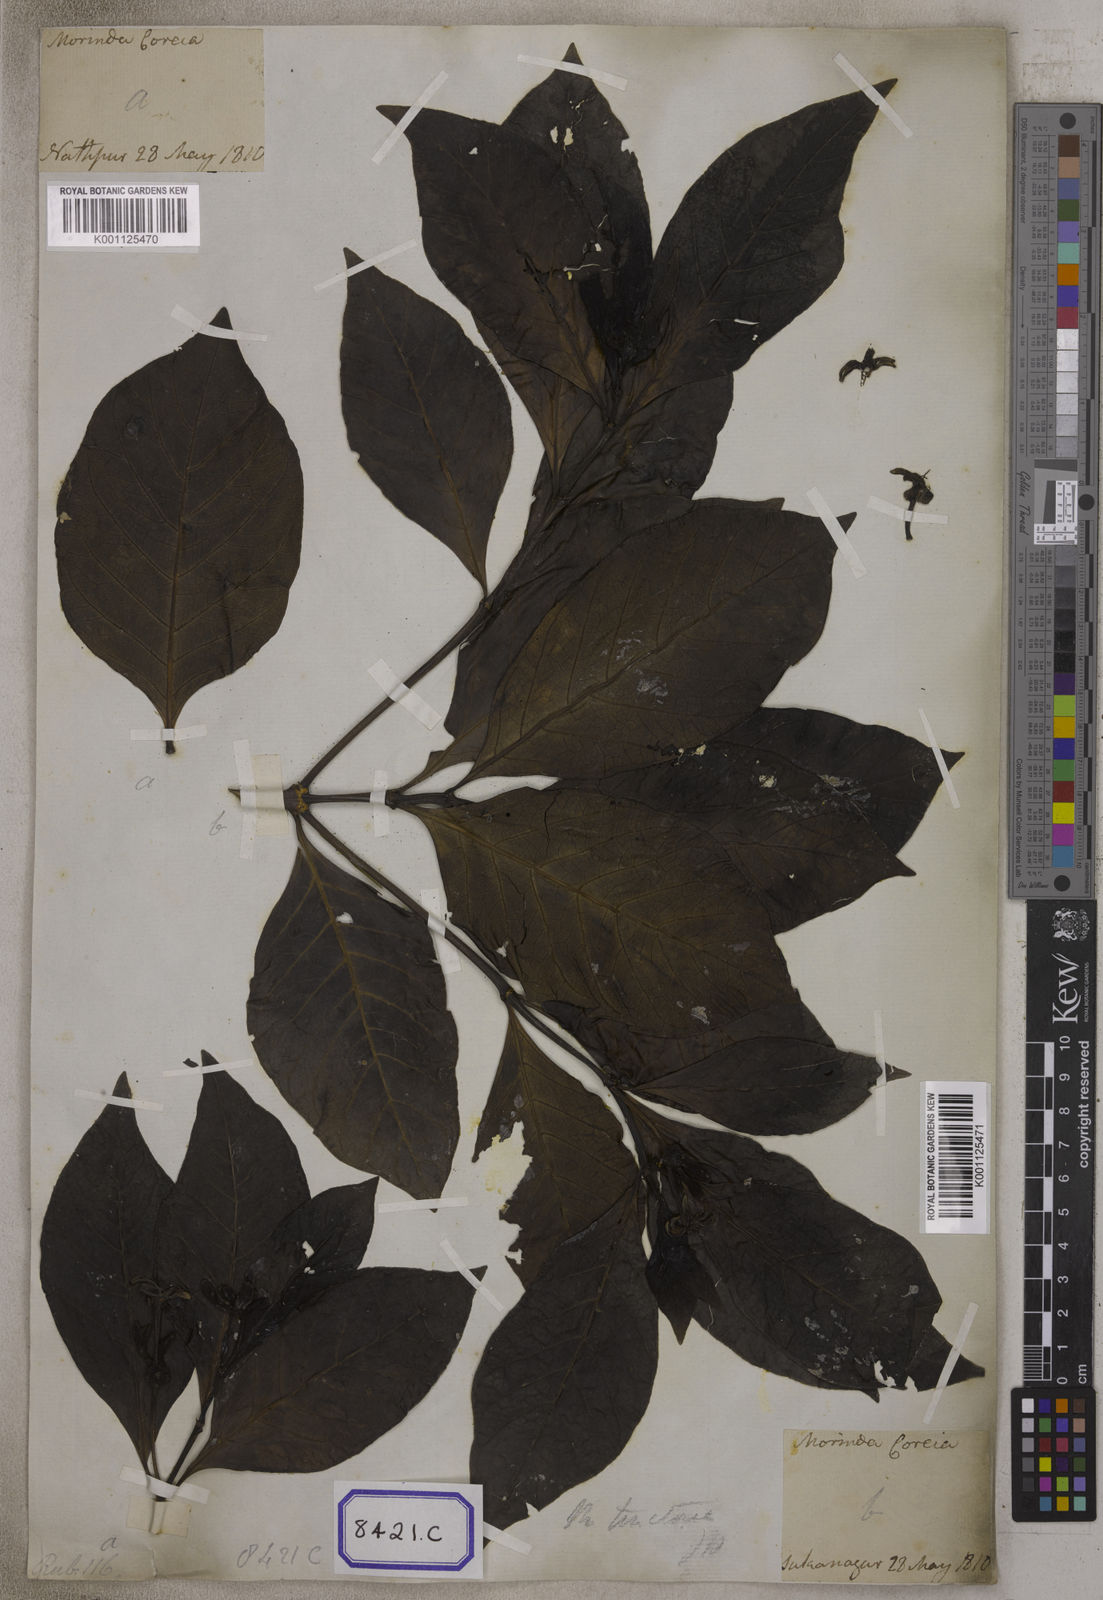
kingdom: Plantae
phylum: Tracheophyta
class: Magnoliopsida
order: Gentianales
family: Rubiaceae
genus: Morinda
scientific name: Morinda coreia
